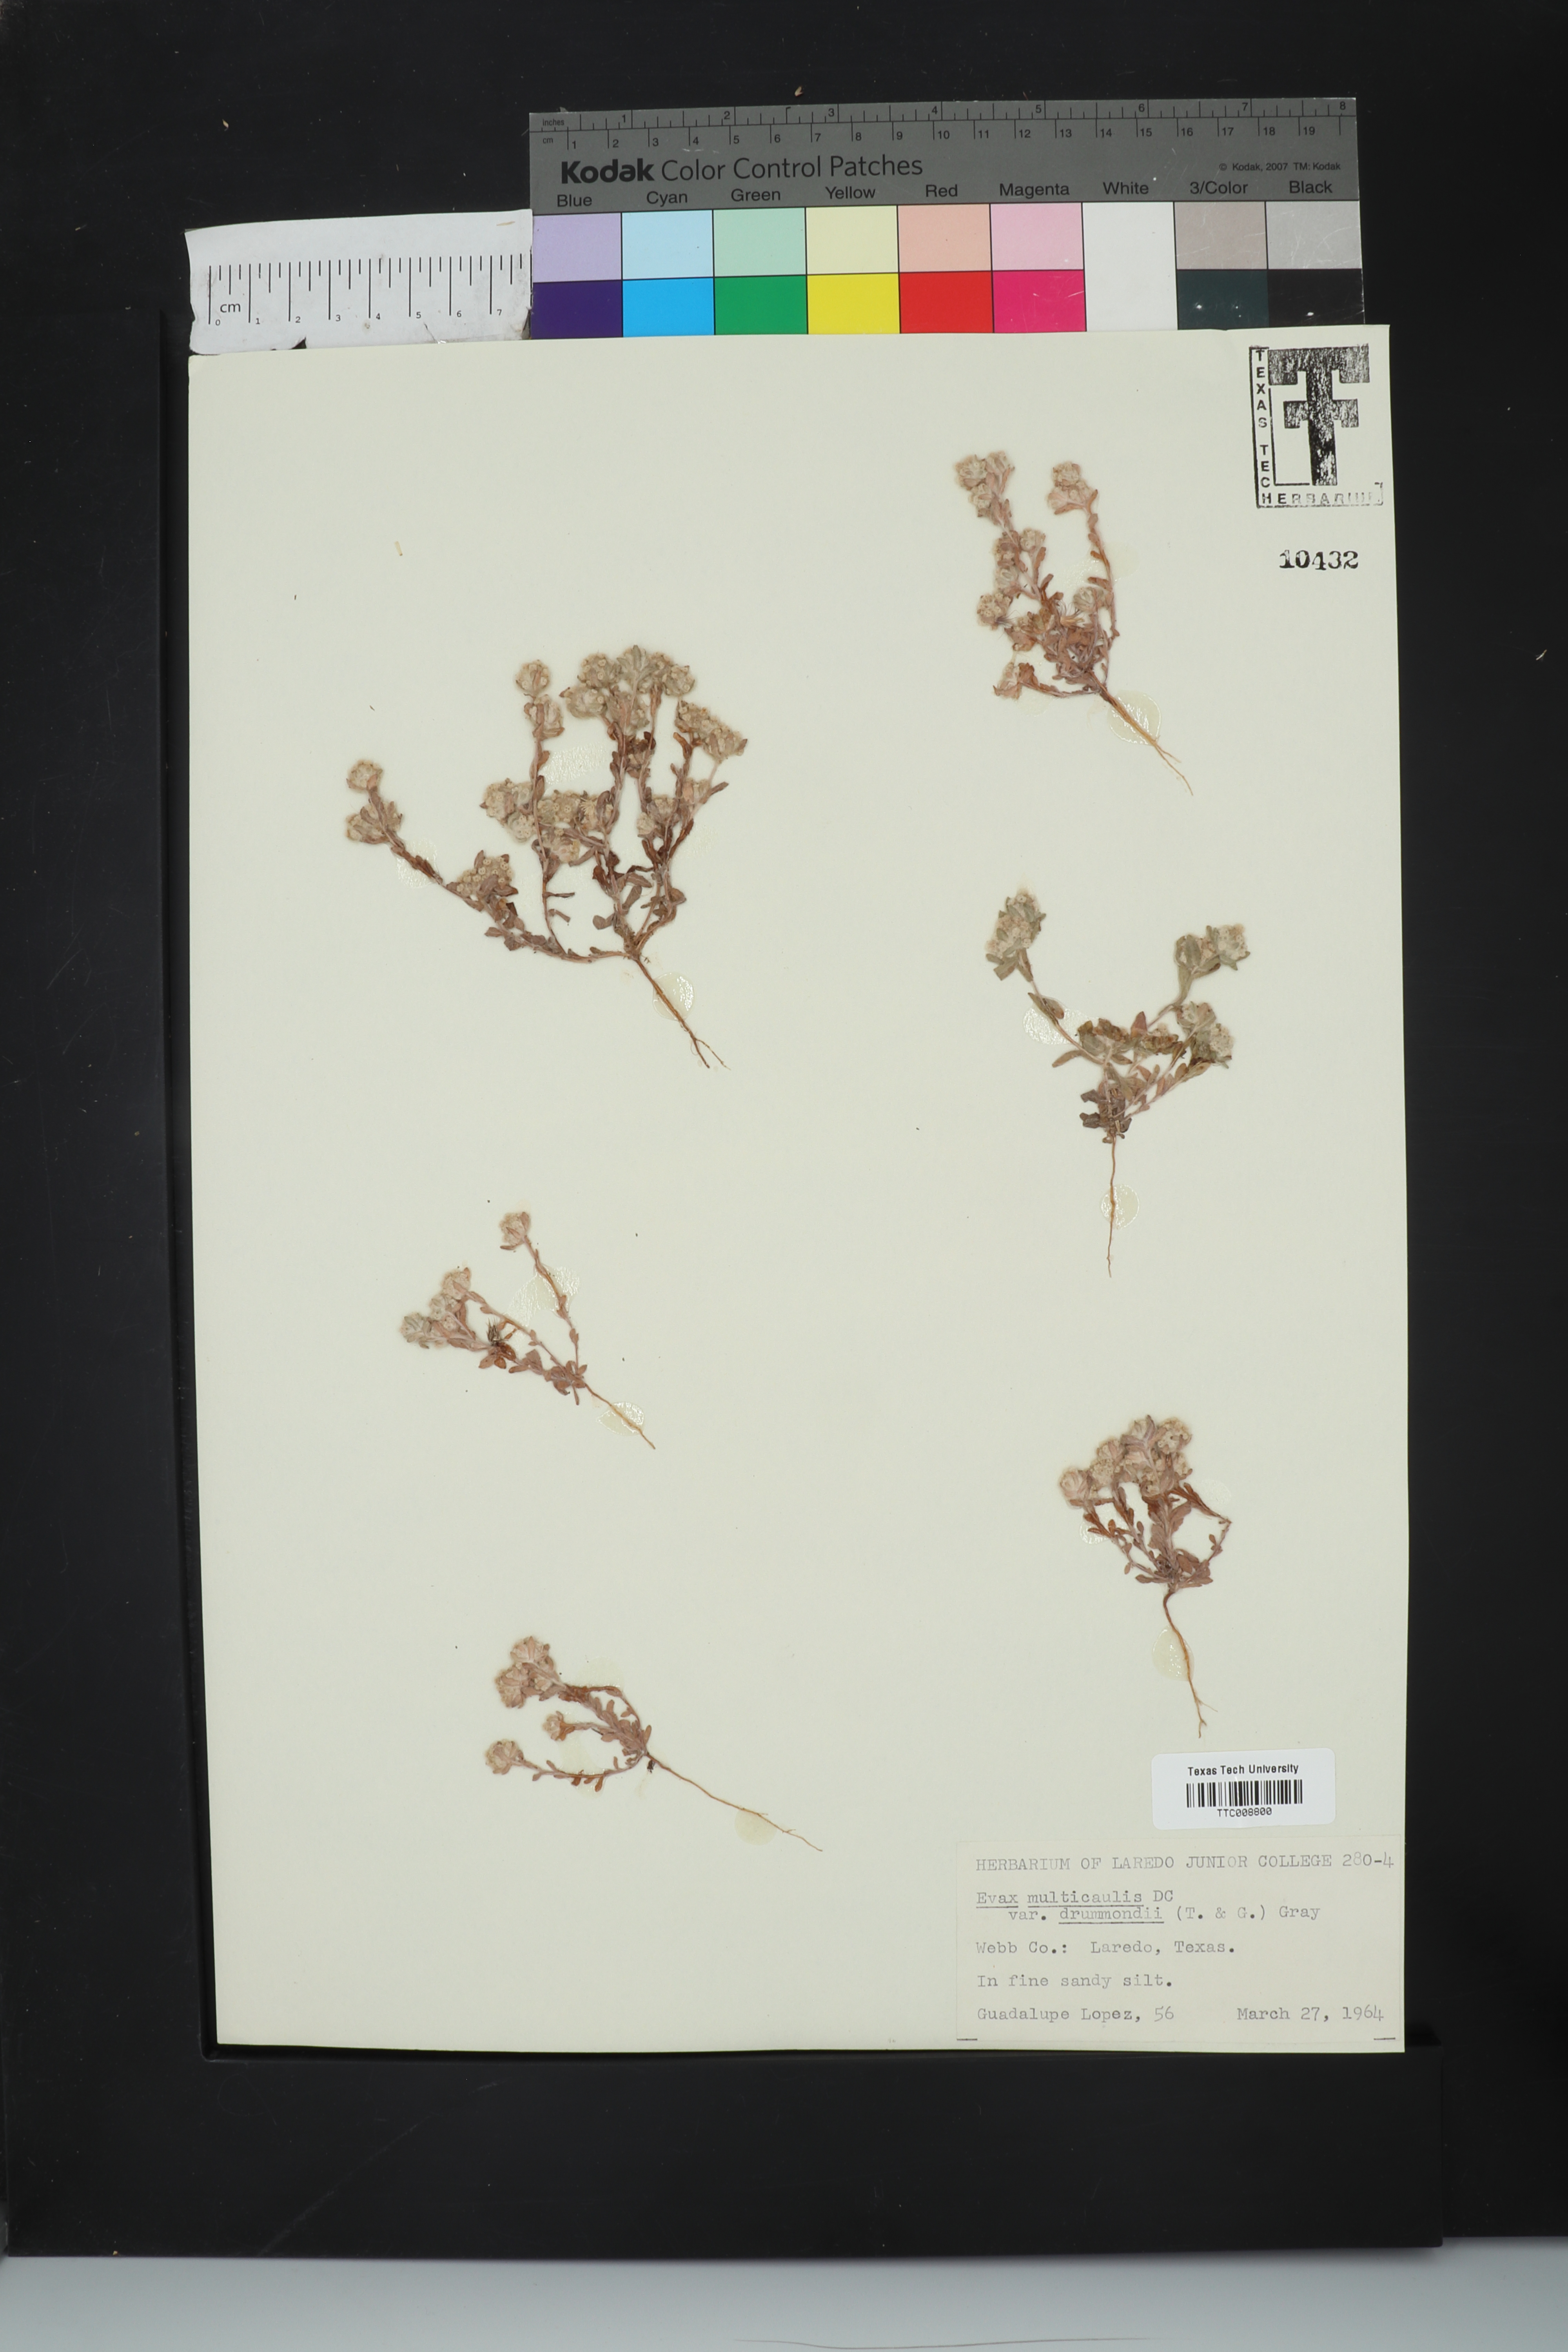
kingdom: Plantae
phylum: Tracheophyta
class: Magnoliopsida
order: Asterales
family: Asteraceae
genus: Diaperia
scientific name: Diaperia verna
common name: Many-stem rabbit-tobacco
